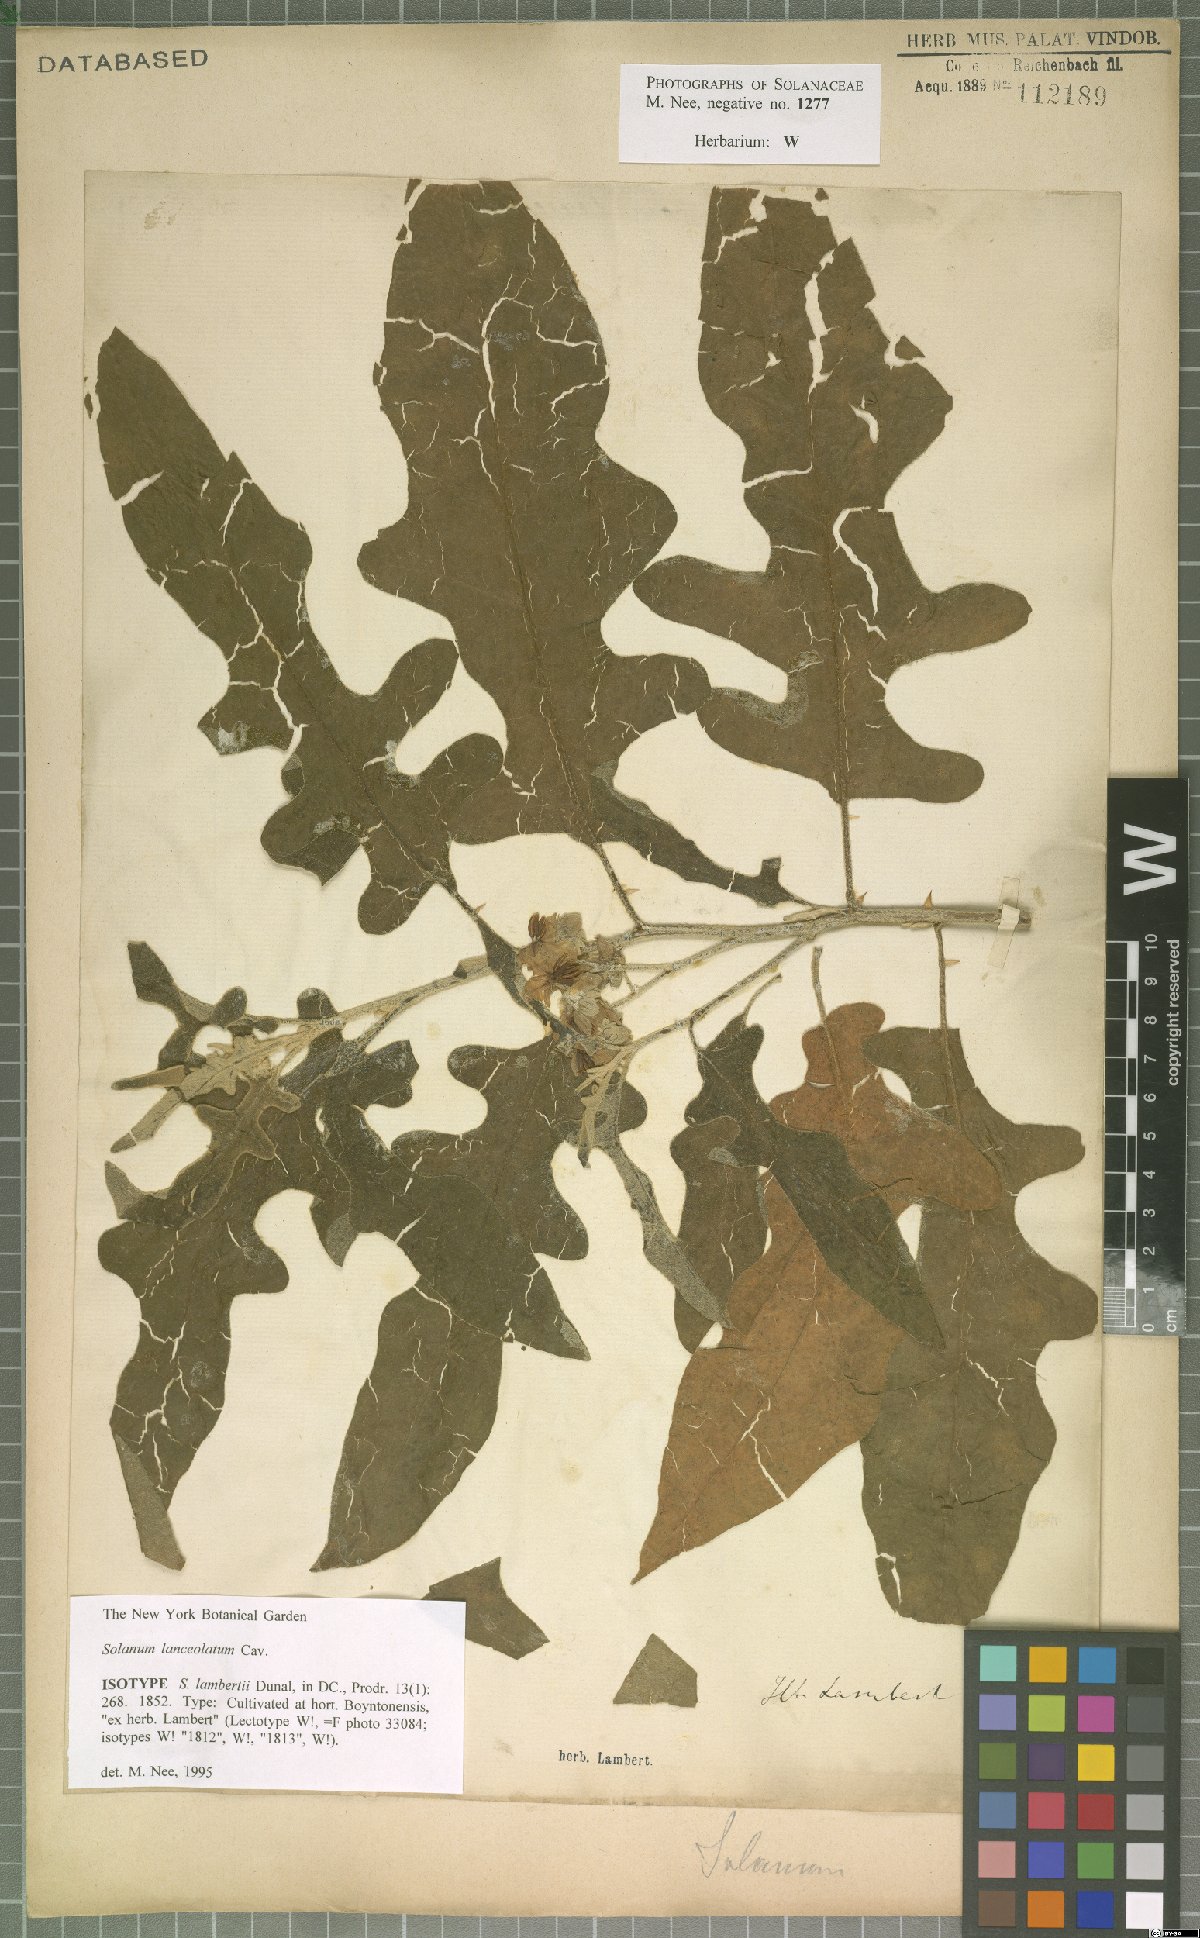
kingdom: Plantae
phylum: Tracheophyta
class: Magnoliopsida
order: Solanales
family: Solanaceae
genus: Solanum
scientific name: Solanum lanceolatum
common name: Orangeberry nightshade
